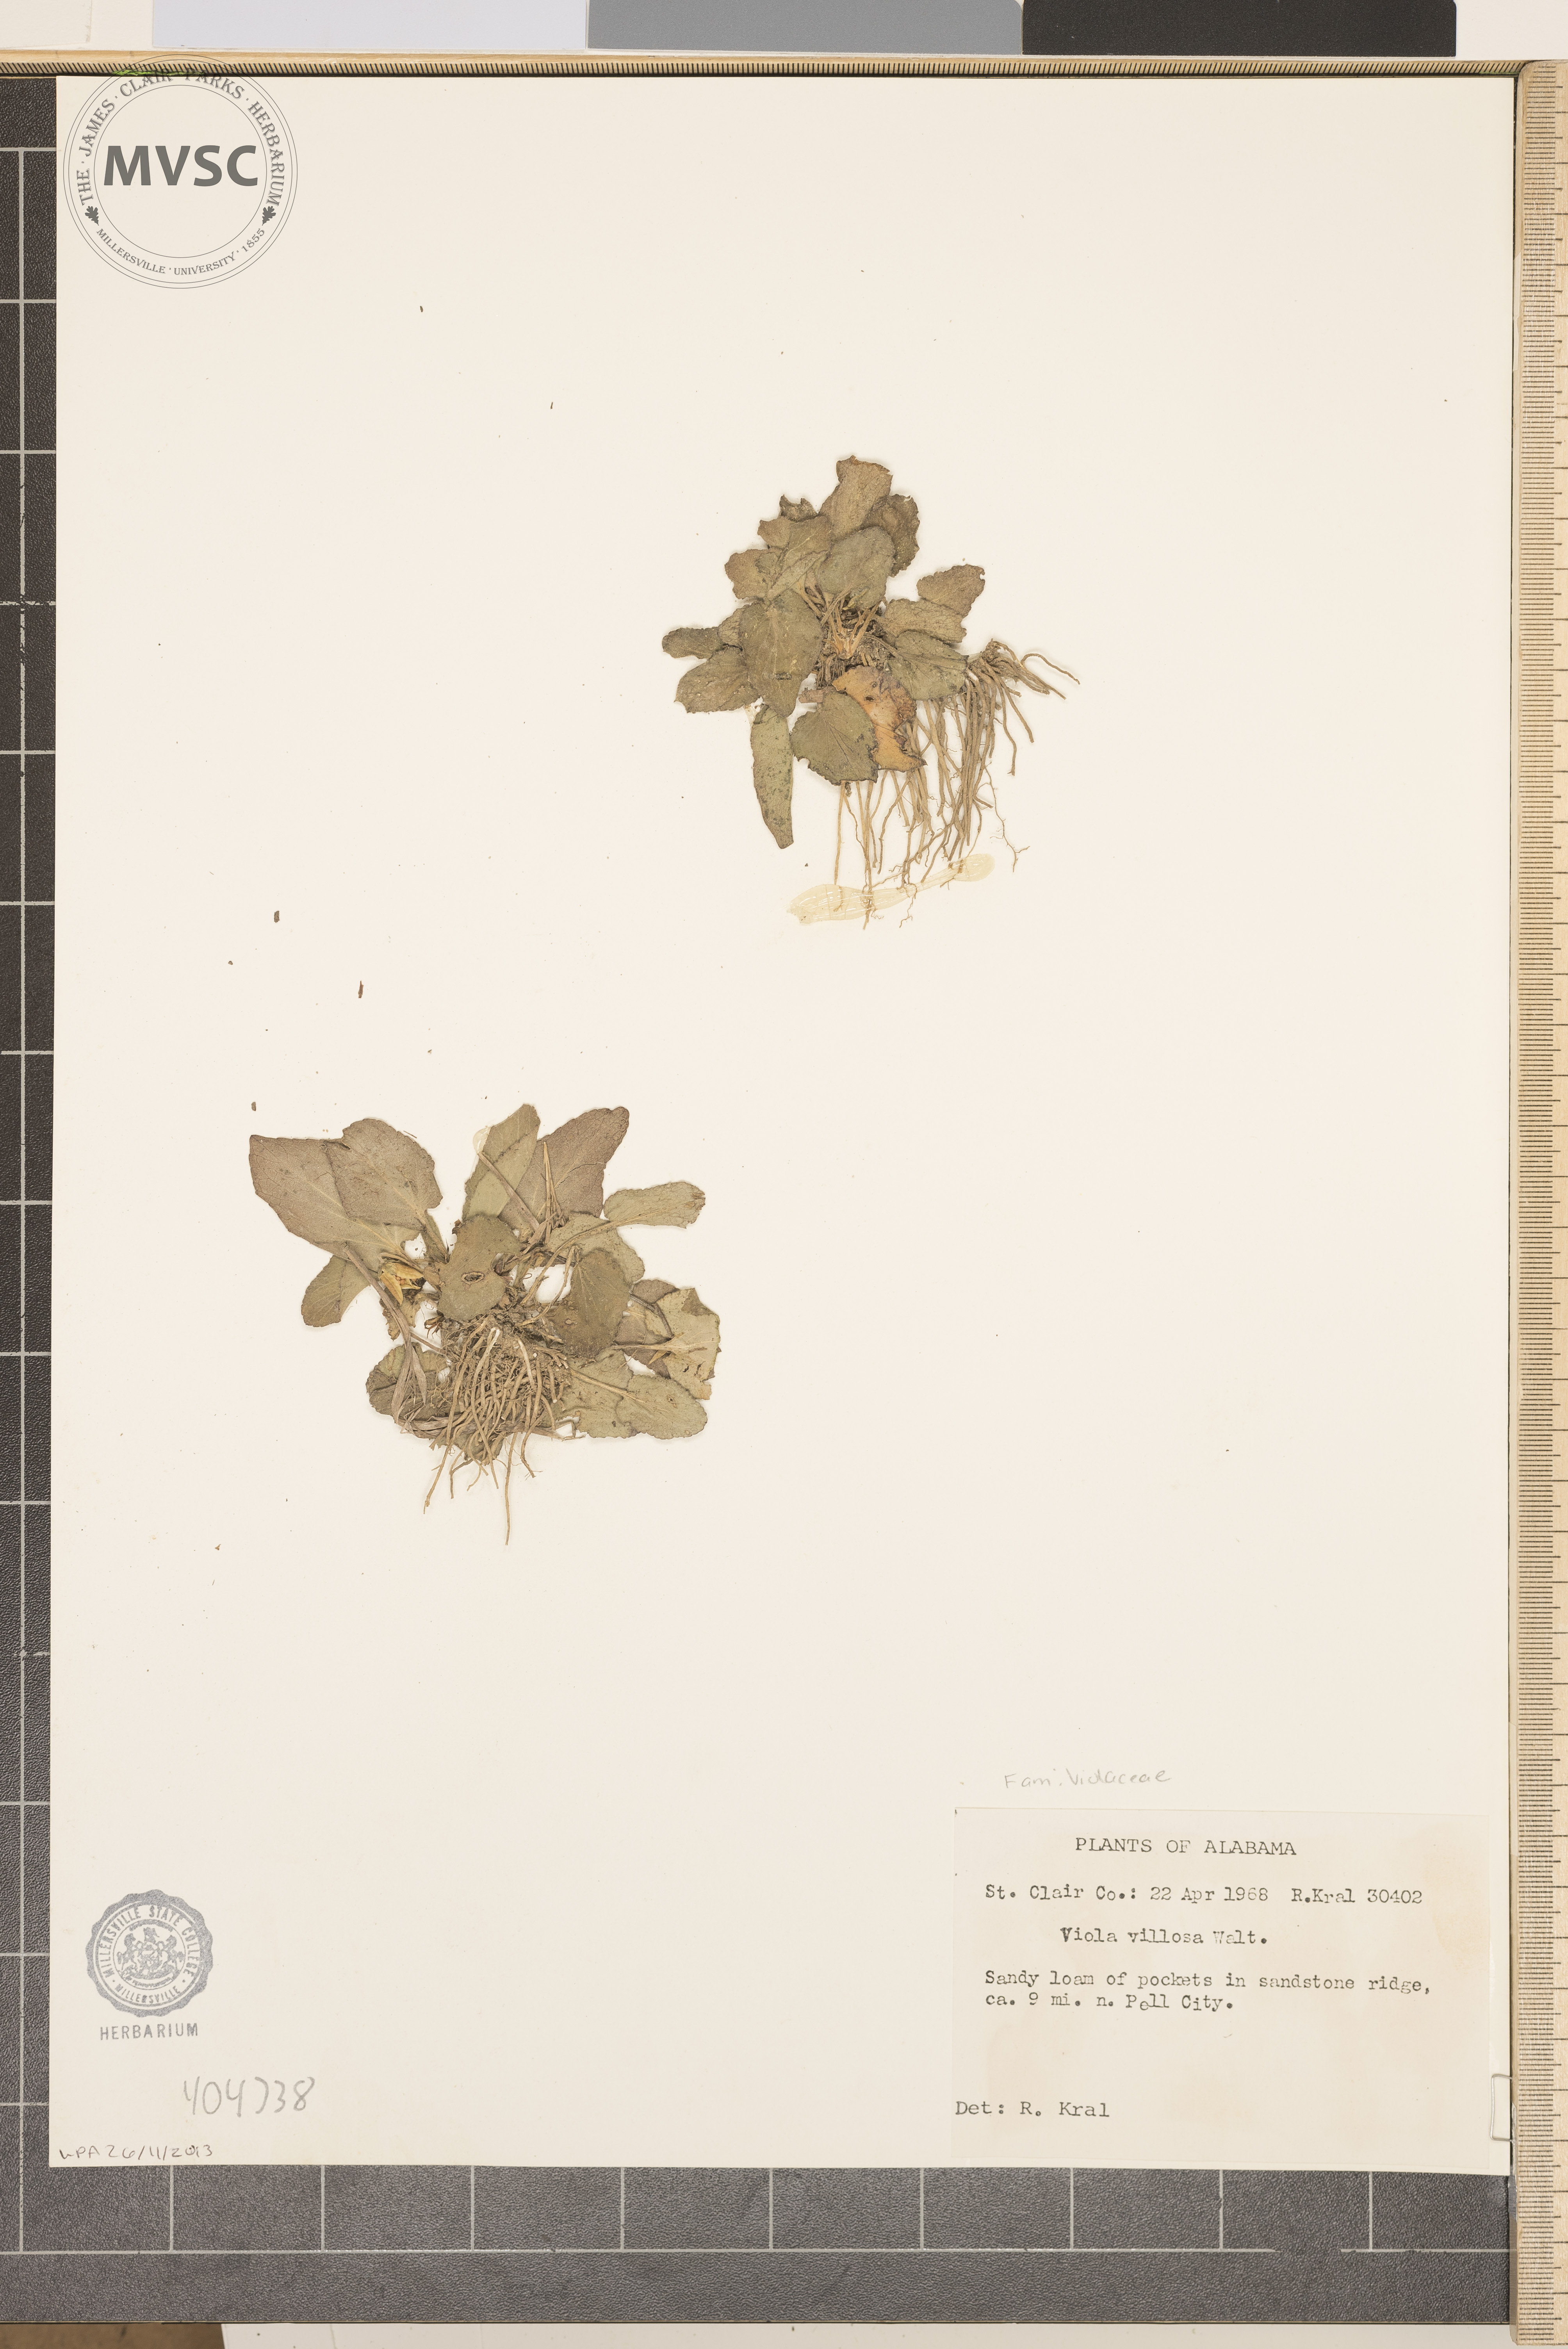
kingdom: Plantae
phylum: Tracheophyta
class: Magnoliopsida
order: Malpighiales
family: Violaceae
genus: Viola
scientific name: Viola villosa
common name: Carolina violet
